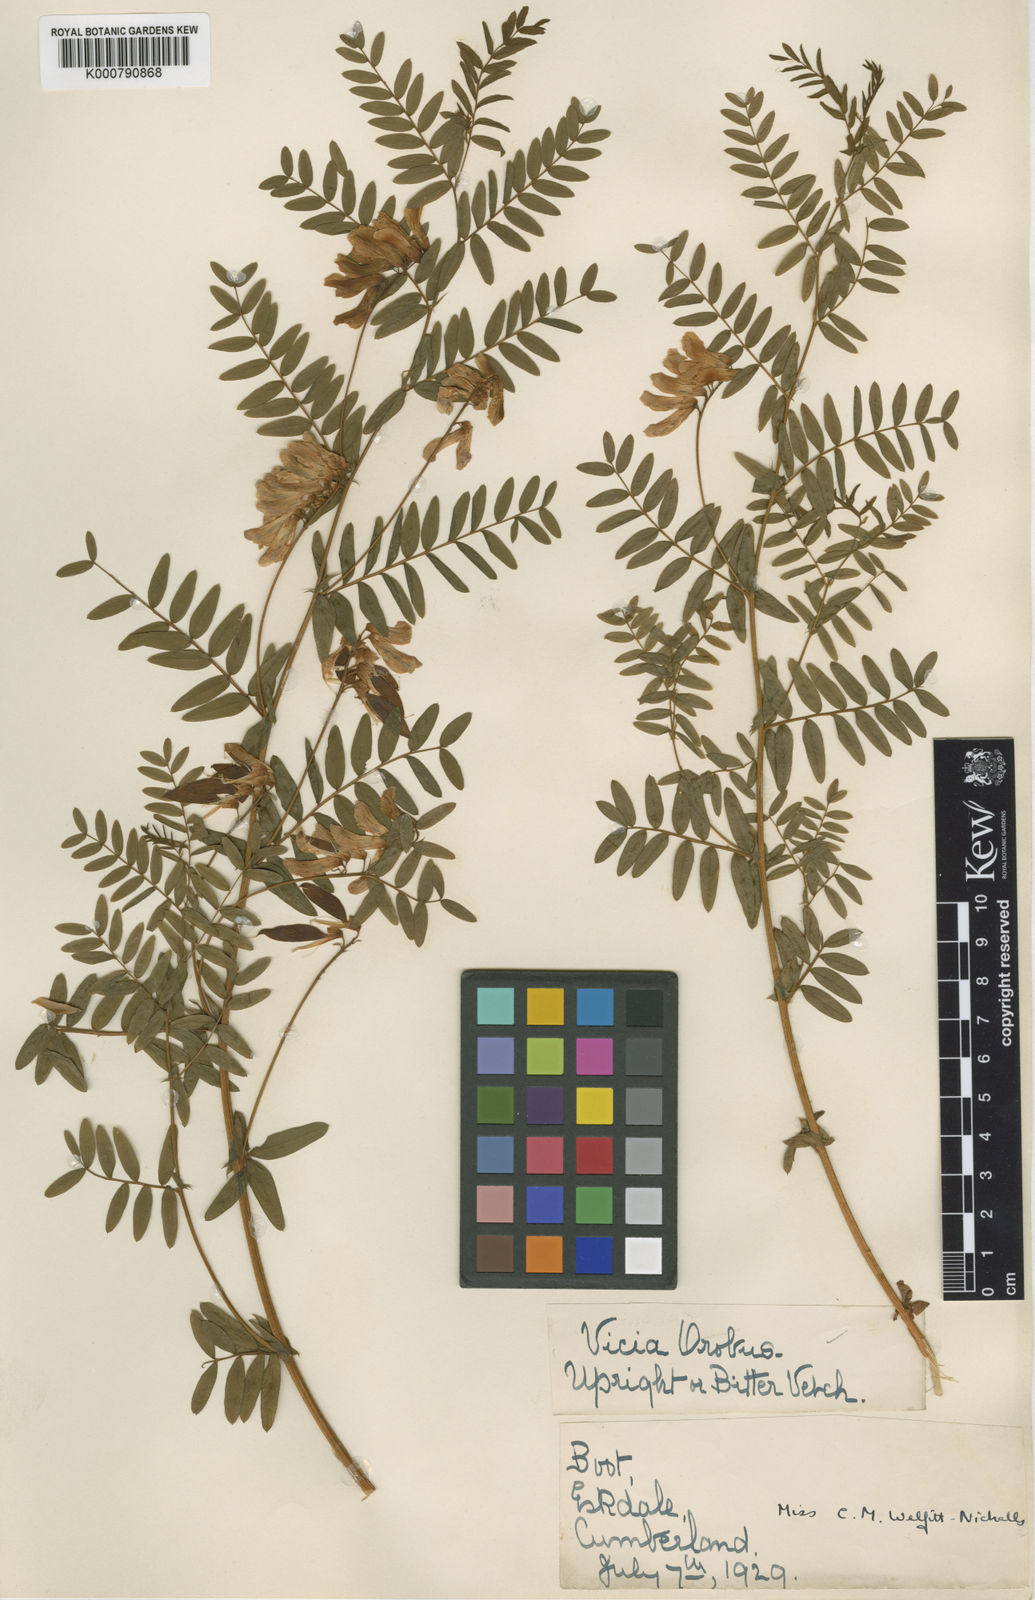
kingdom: Plantae
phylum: Tracheophyta
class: Magnoliopsida
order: Fabales
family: Fabaceae
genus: Vicia
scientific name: Vicia orobus
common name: Wood bitter-vetch
